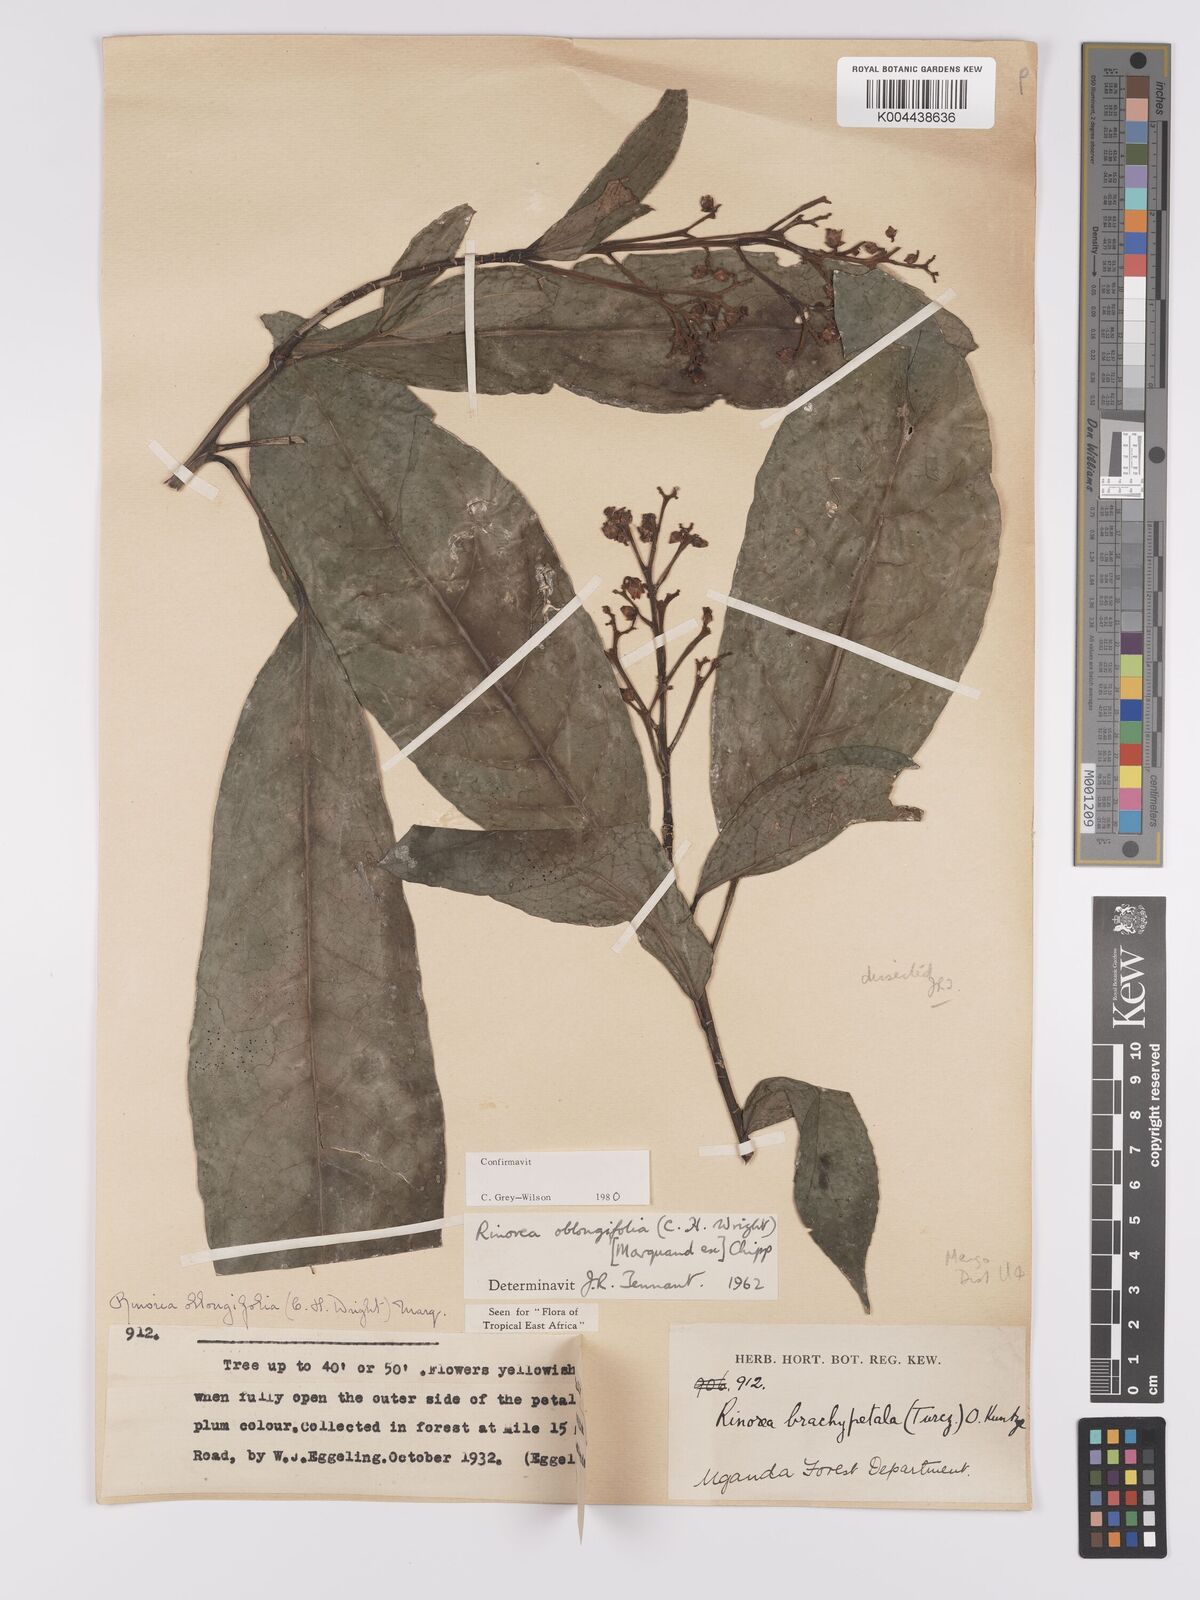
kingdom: Plantae
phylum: Tracheophyta
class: Magnoliopsida
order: Apiales
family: Pittosporaceae
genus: Marianthus
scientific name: Marianthus coeruleopunctatus
